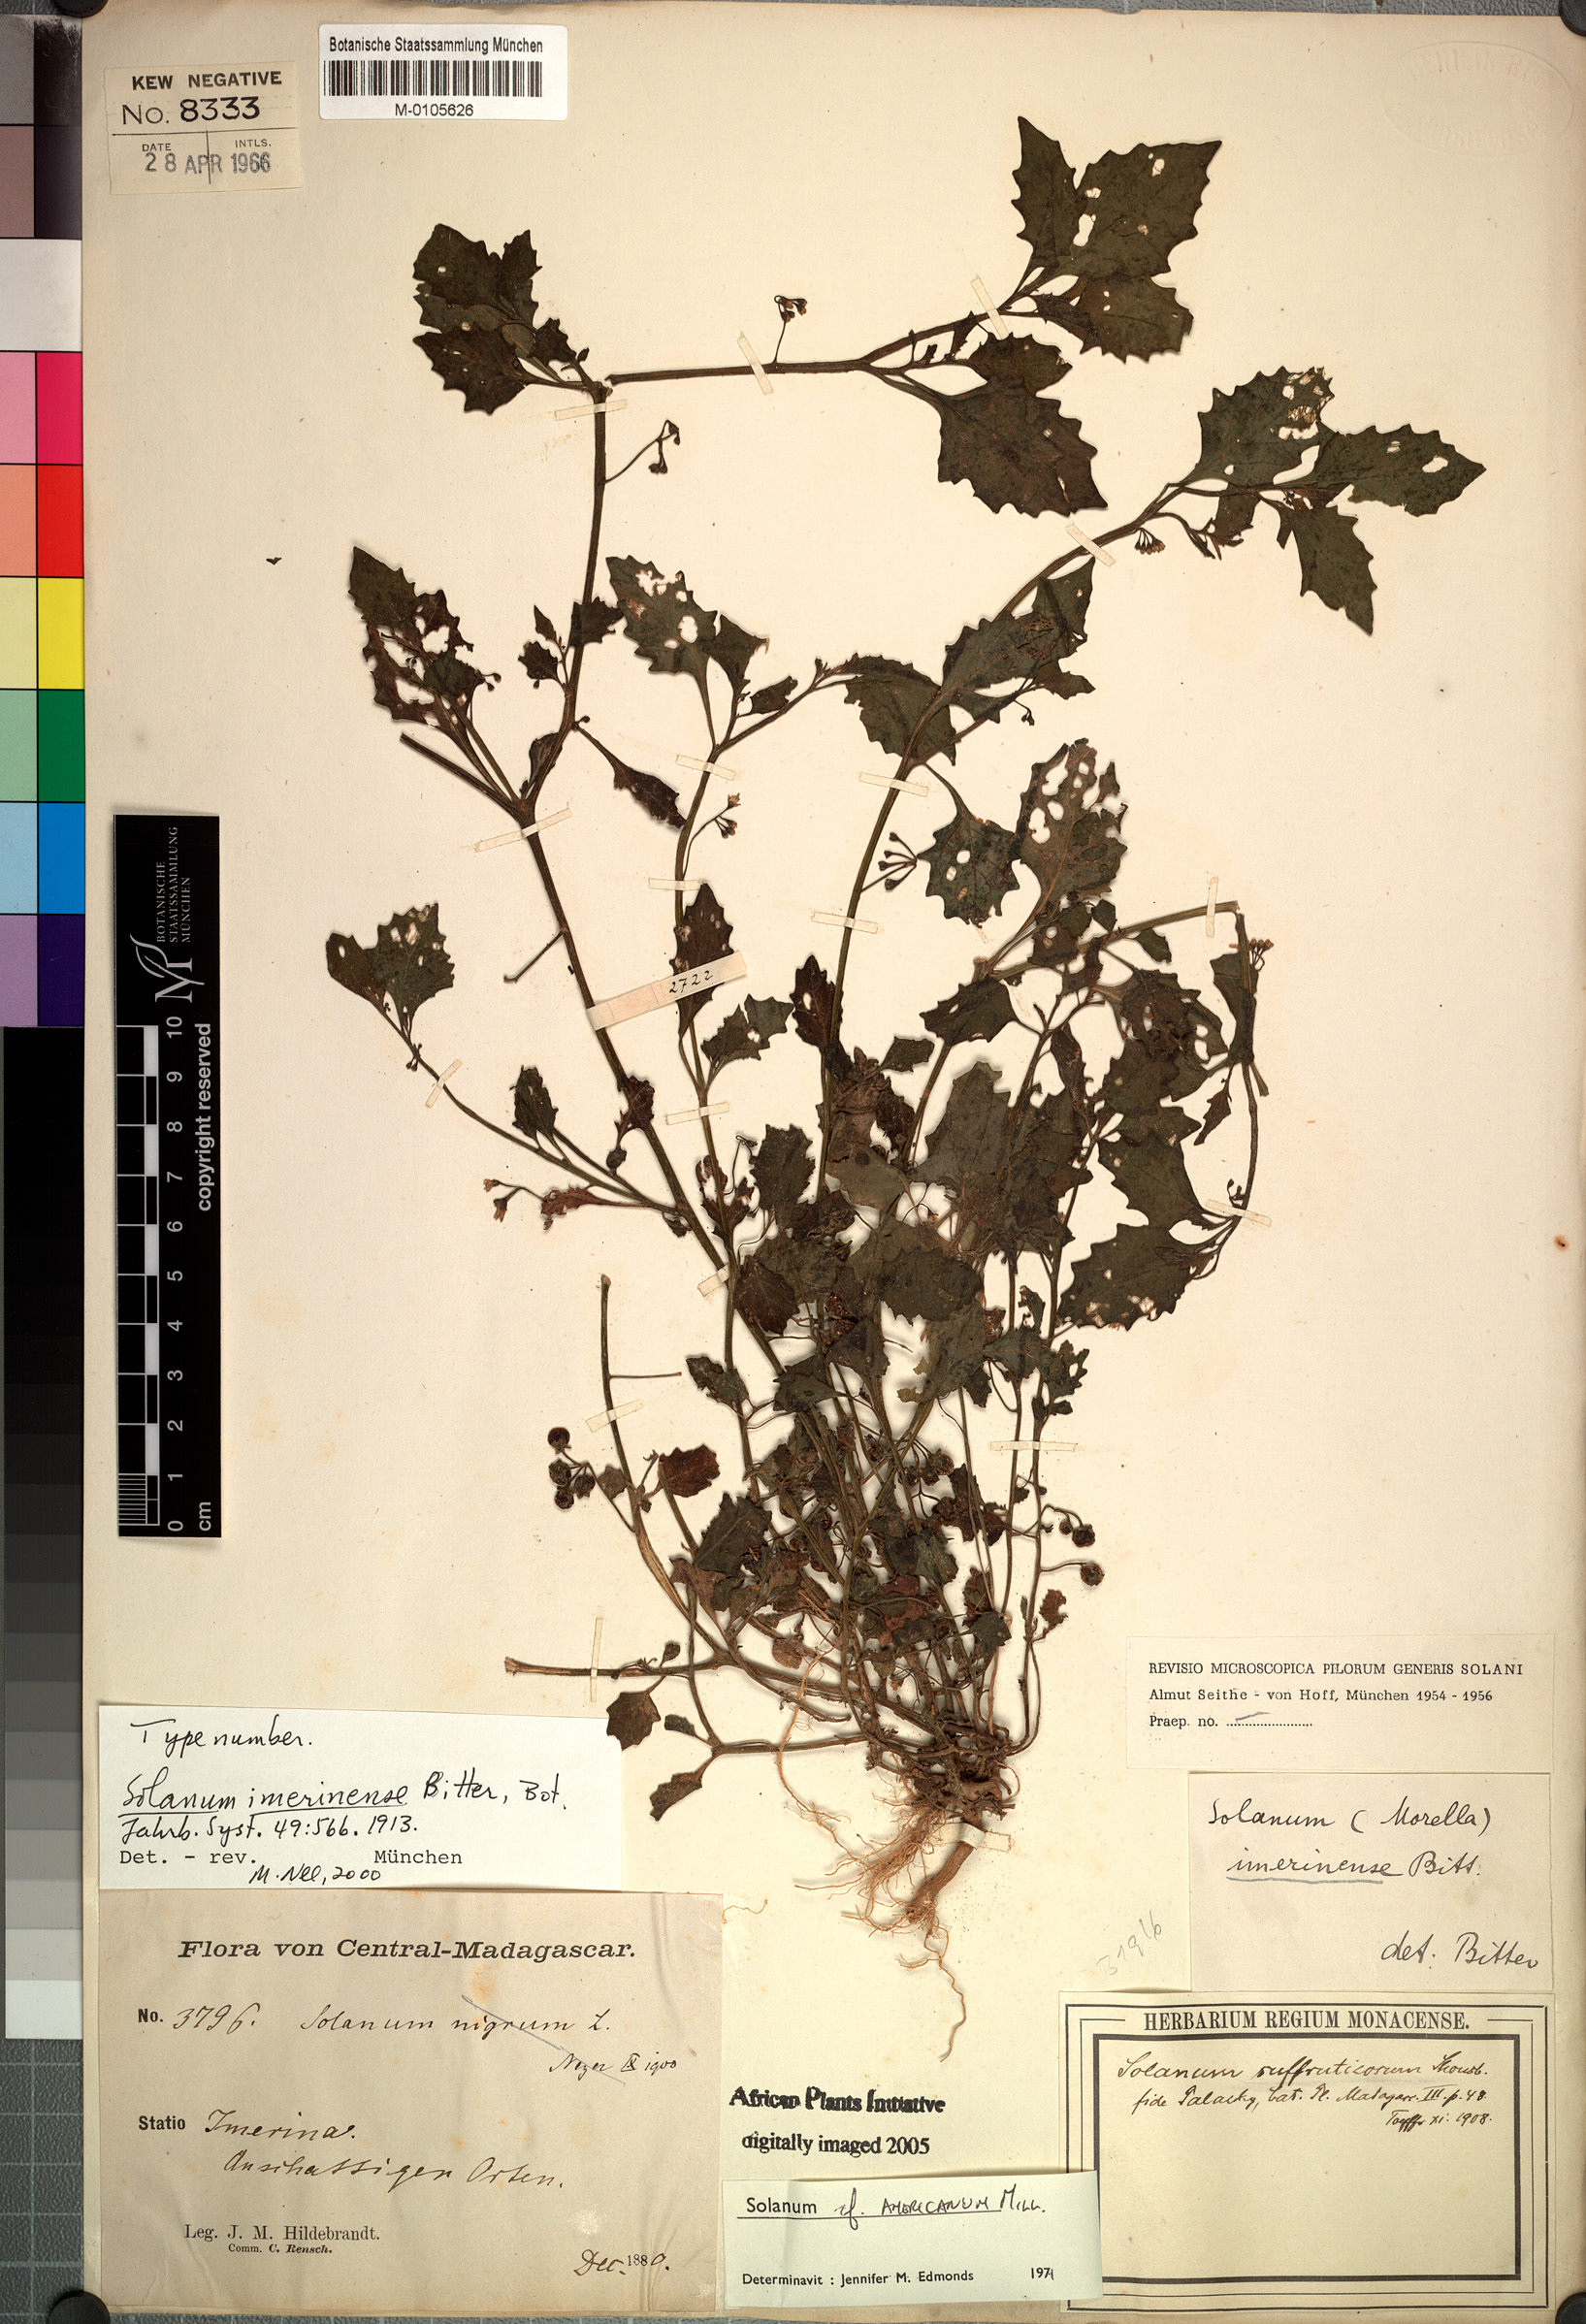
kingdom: Plantae
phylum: Tracheophyta
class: Magnoliopsida
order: Solanales
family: Solanaceae
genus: Solanum
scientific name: Solanum americanum
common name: American black nightshade
